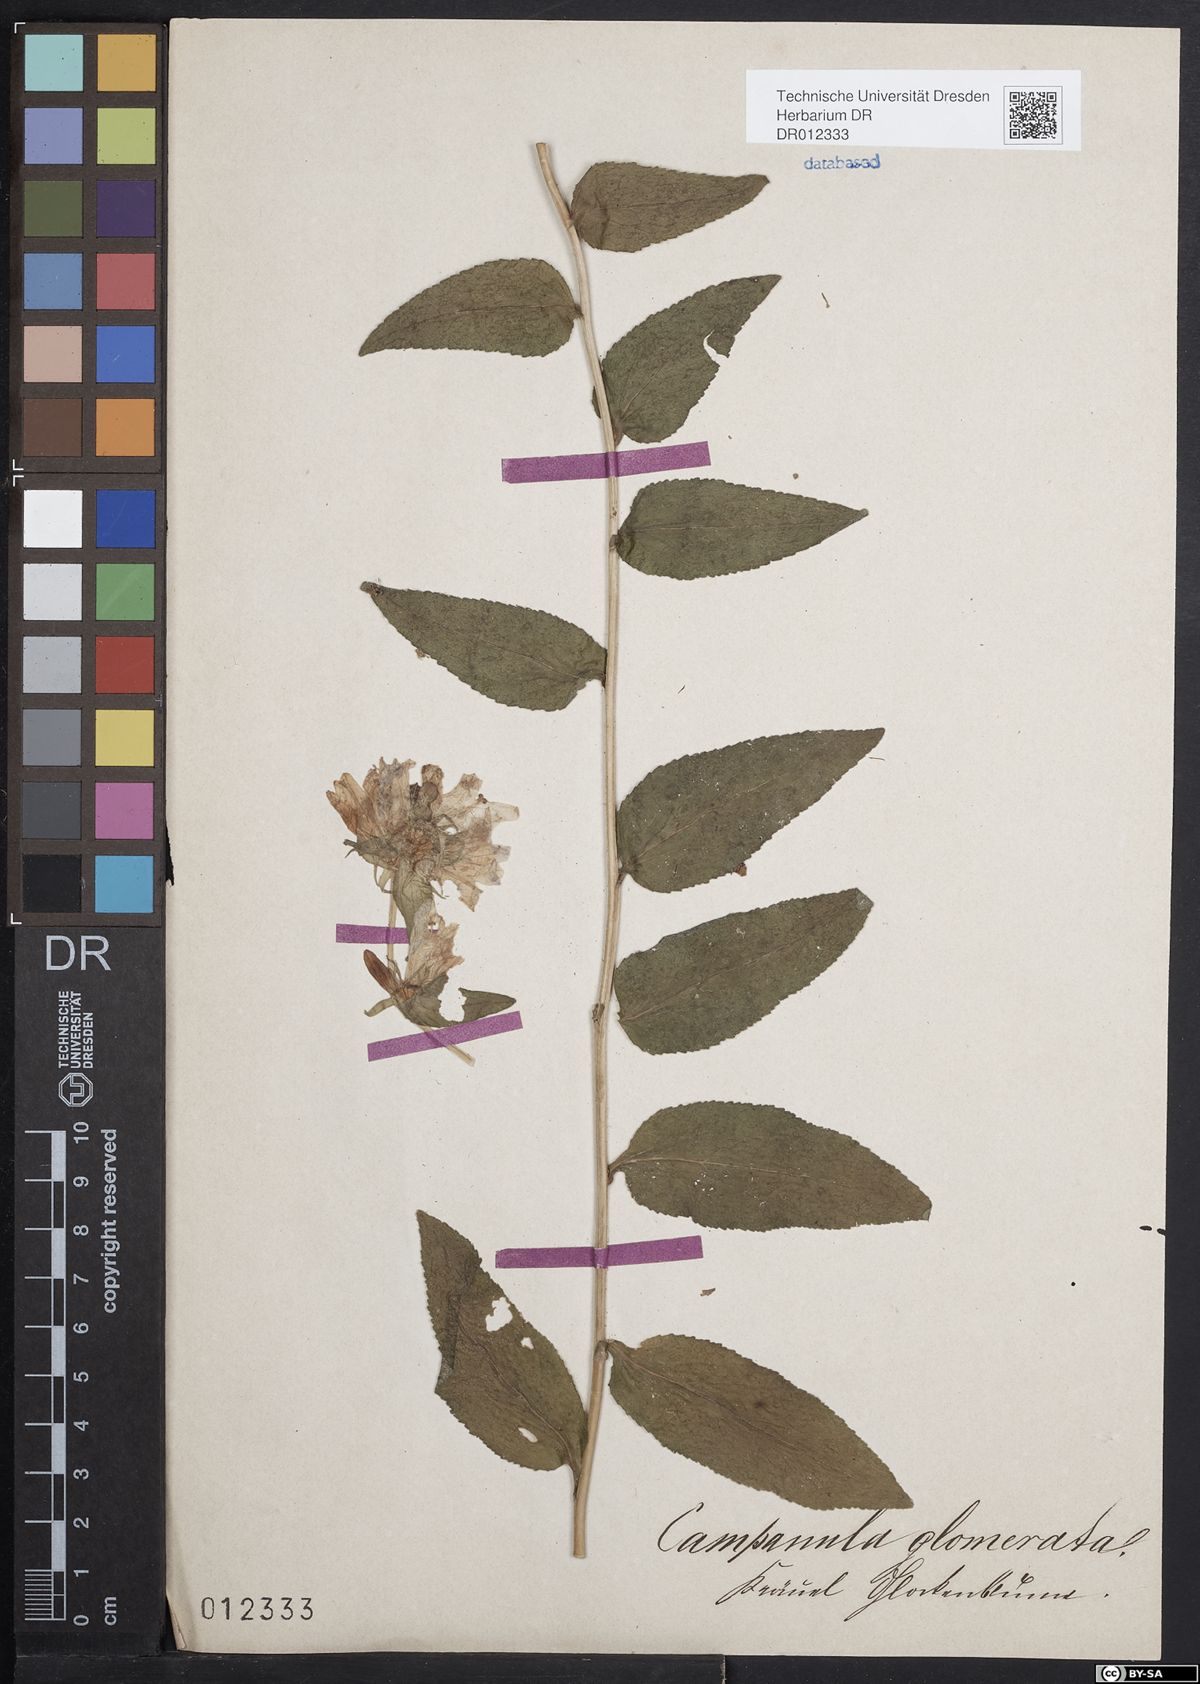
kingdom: Plantae
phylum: Tracheophyta
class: Magnoliopsida
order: Asterales
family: Campanulaceae
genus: Campanula
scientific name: Campanula glomerata
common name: Clustered bellflower
